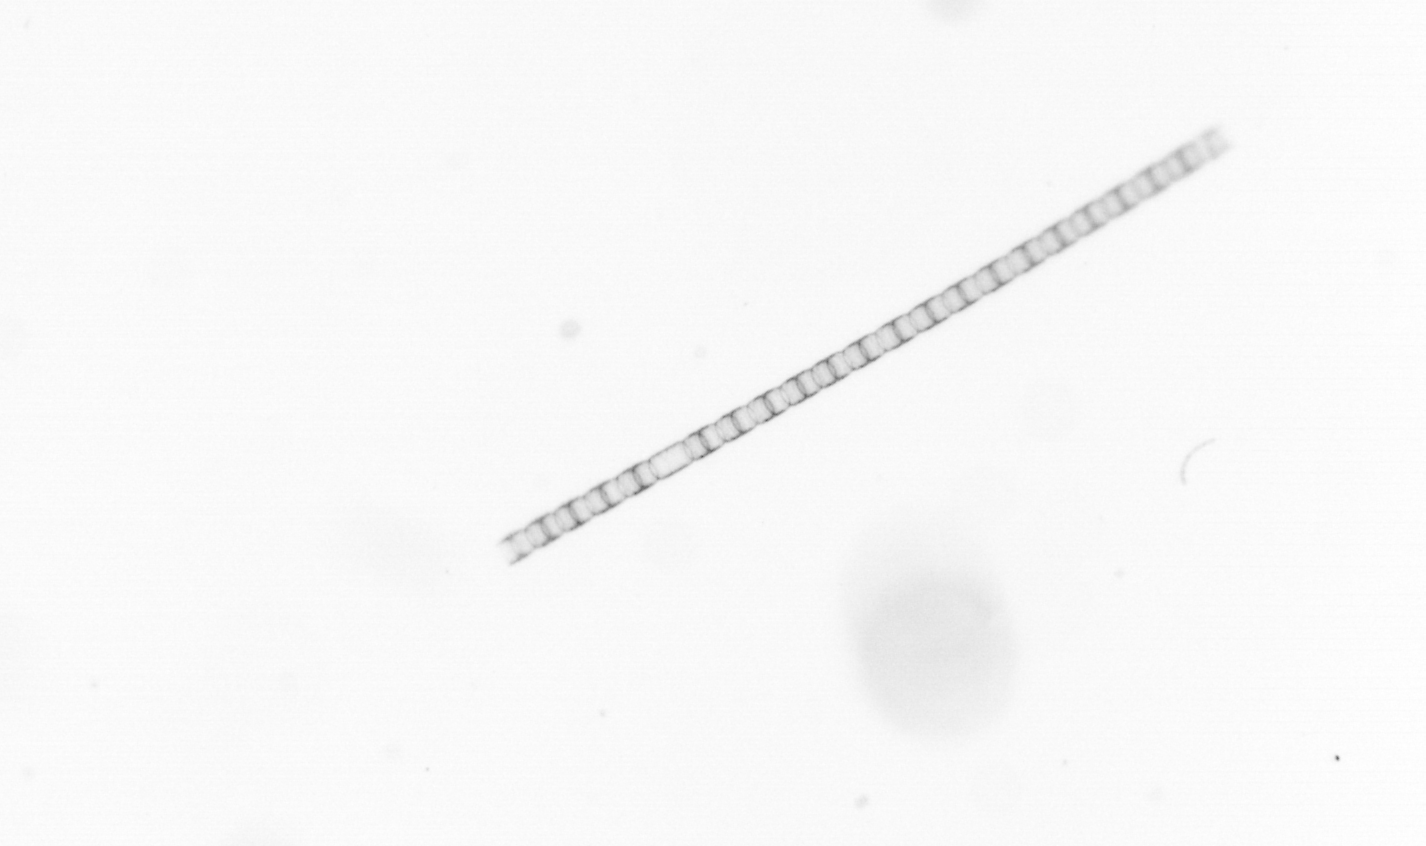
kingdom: Chromista
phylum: Ochrophyta
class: Bacillariophyceae
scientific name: Bacillariophyceae
